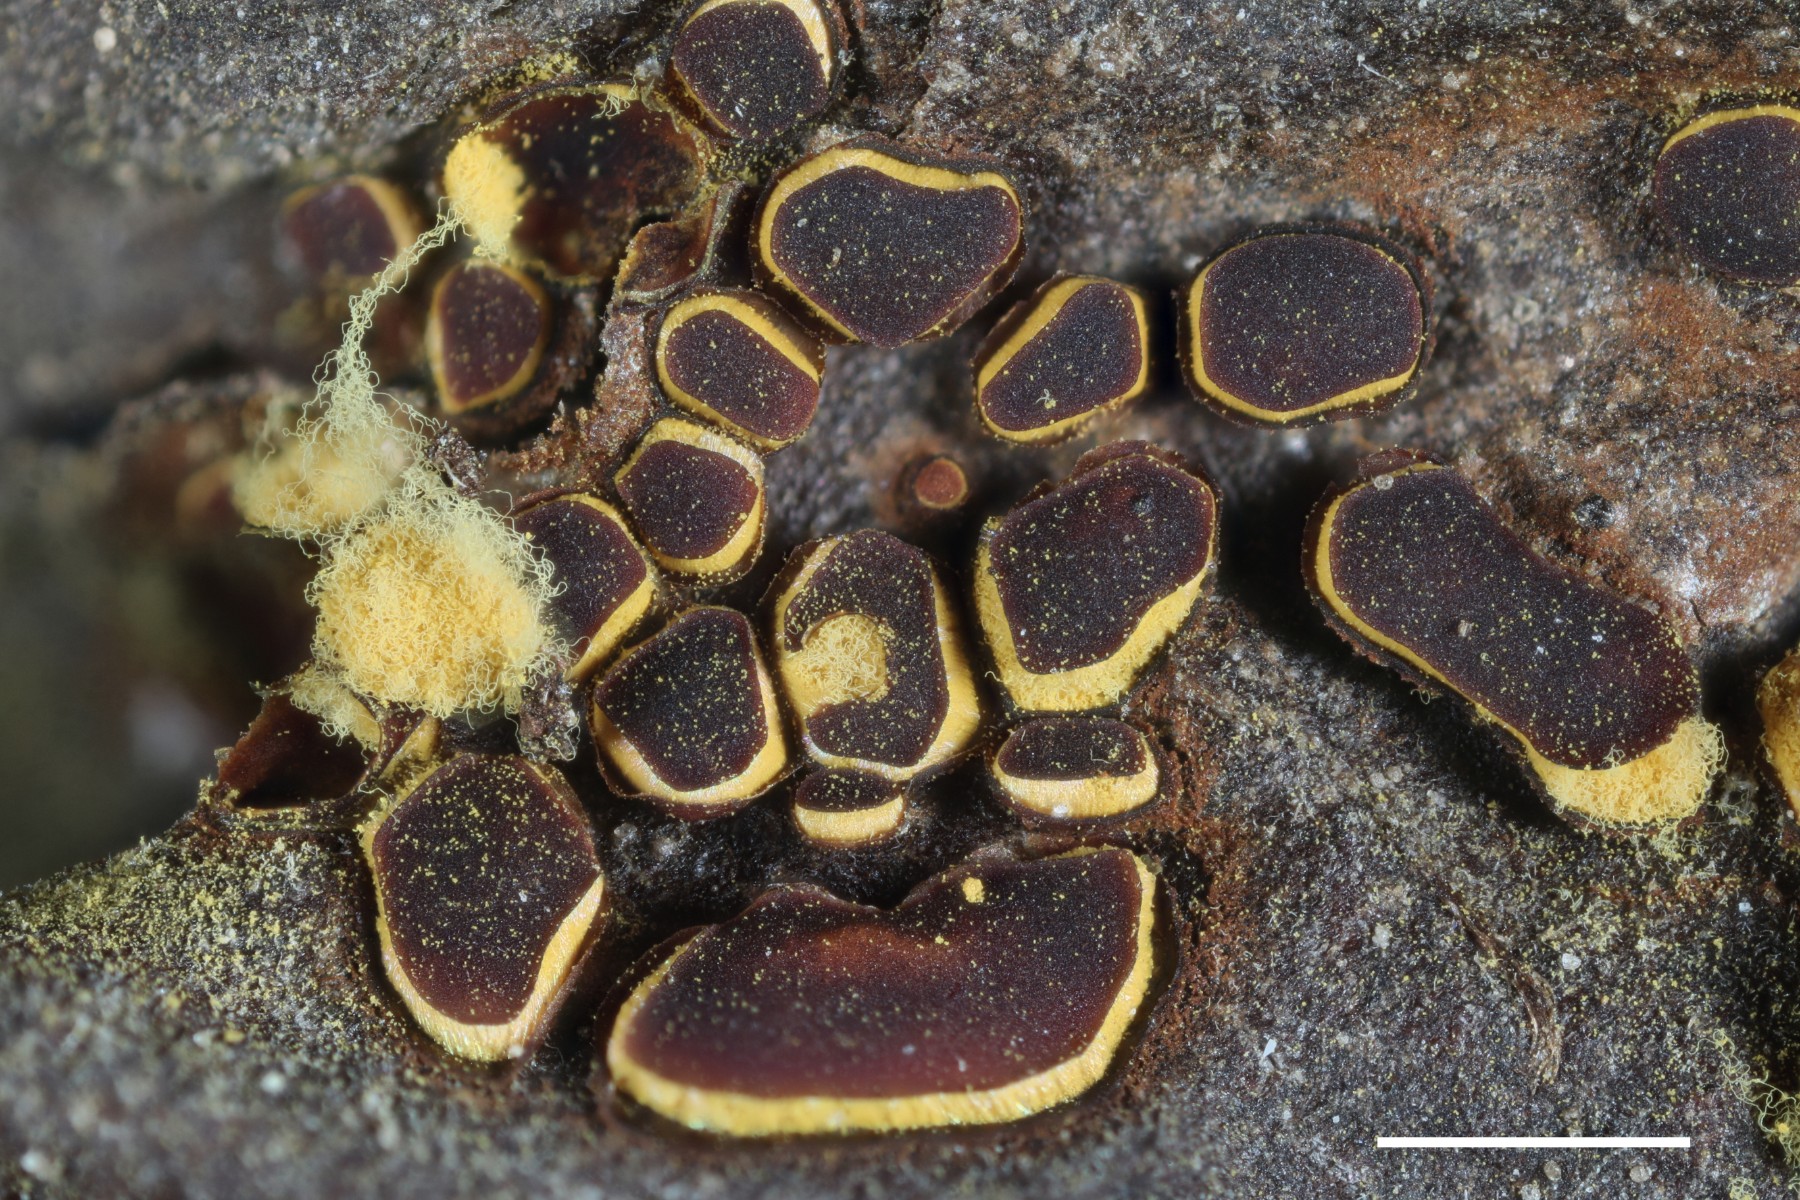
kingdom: Protozoa
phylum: Mycetozoa
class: Myxomycetes
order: Trichiales
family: Trichiaceae
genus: Perichaena
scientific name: Perichaena depressa
